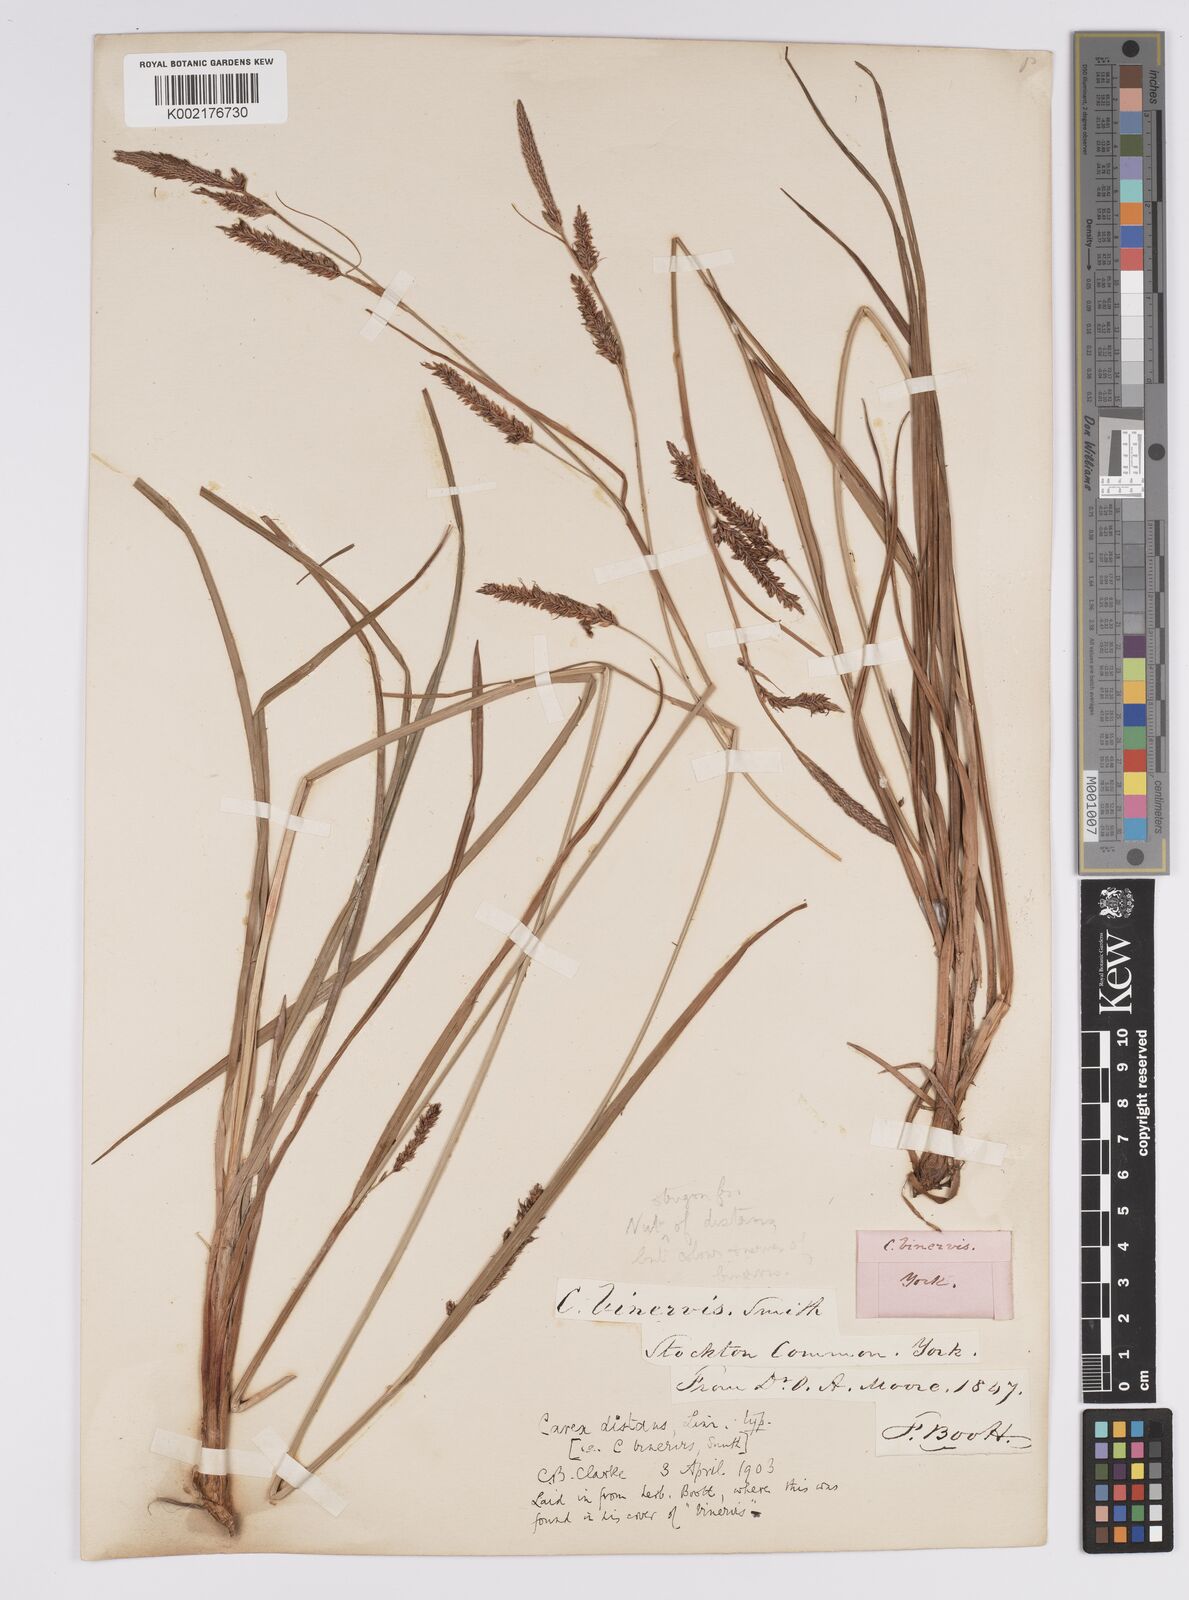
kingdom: Plantae
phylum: Tracheophyta
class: Liliopsida
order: Poales
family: Cyperaceae
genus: Carex
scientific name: Carex binervis
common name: Green-ribbed sedge
